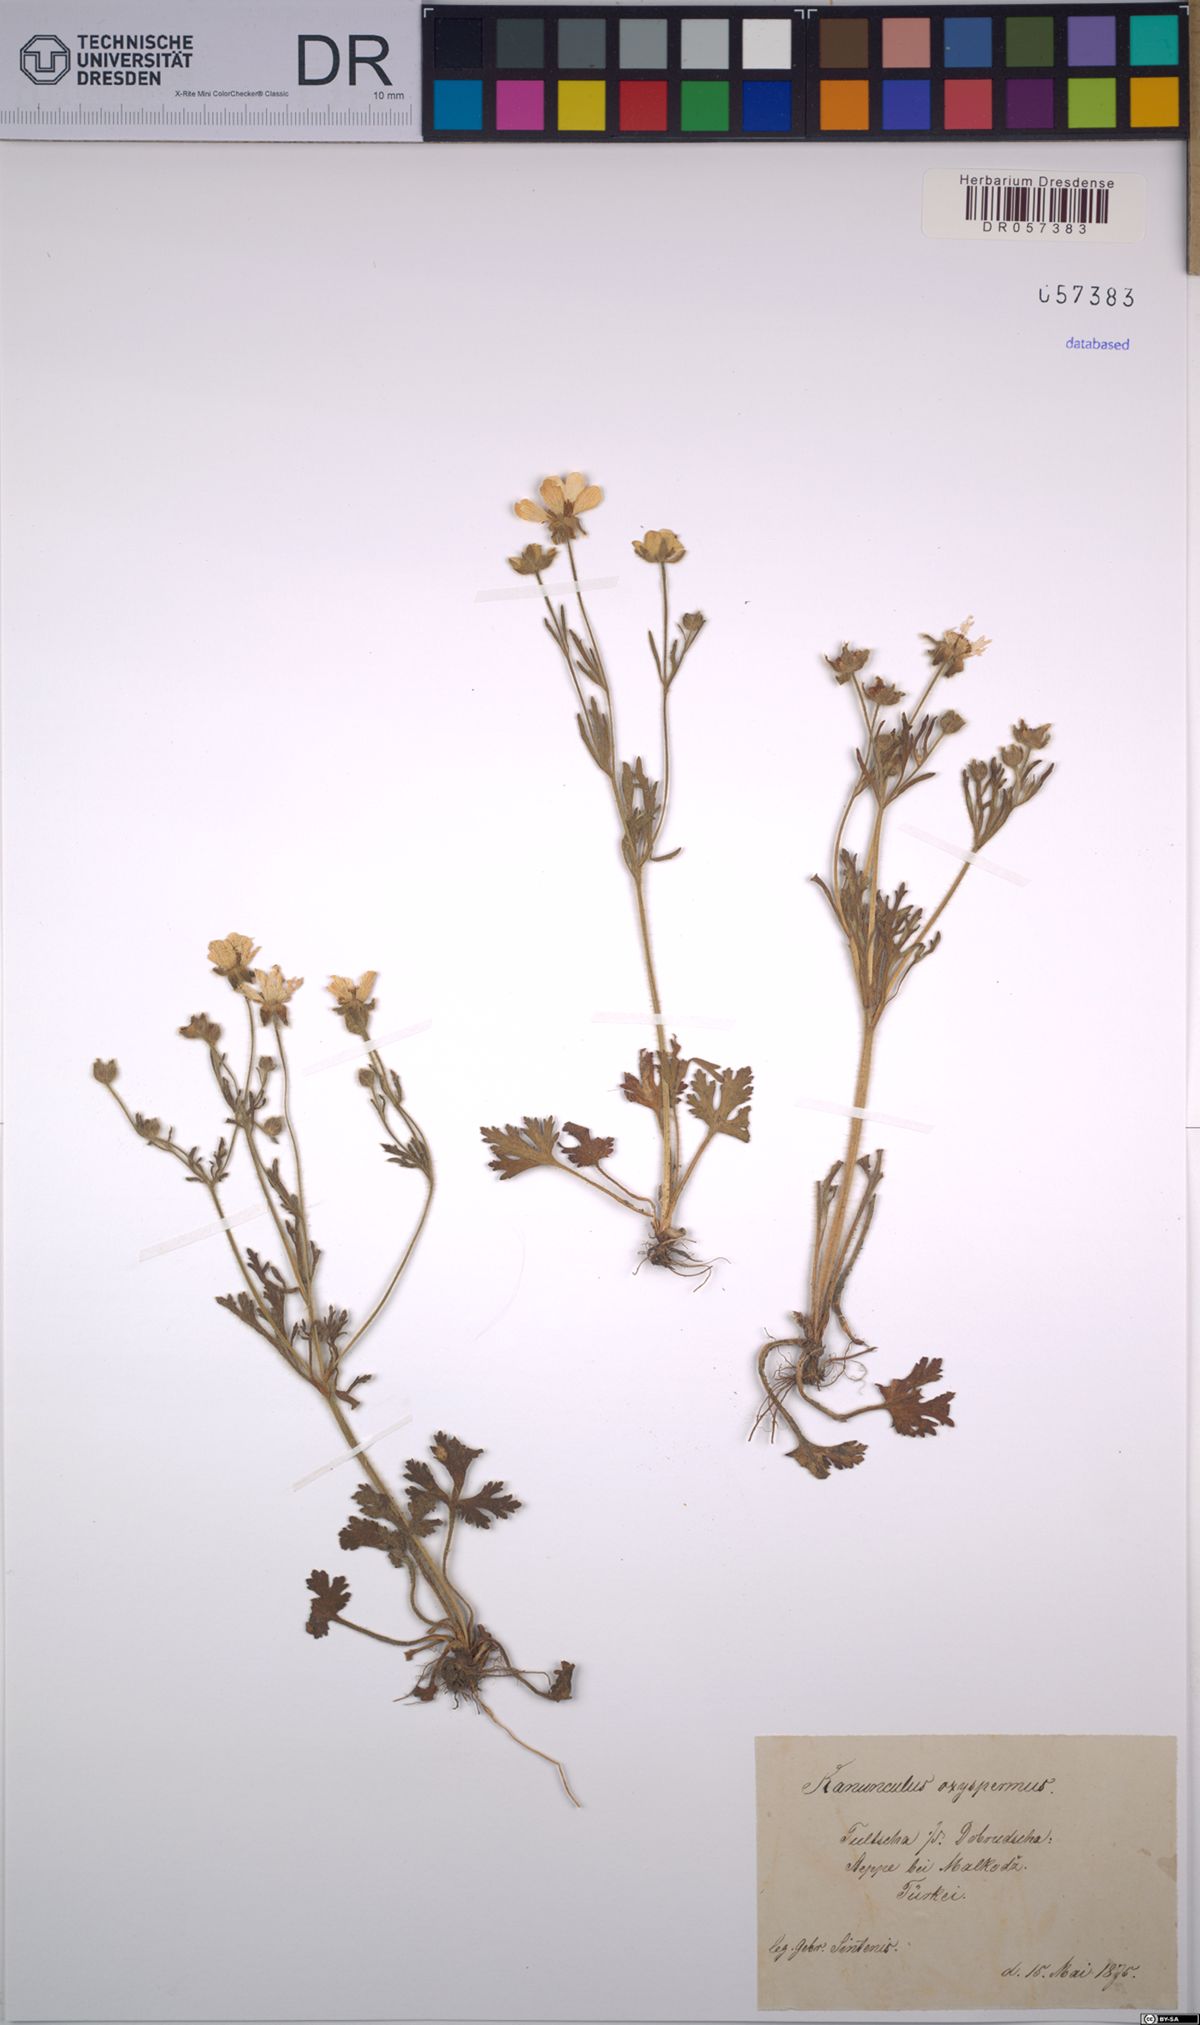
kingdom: Plantae
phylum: Tracheophyta
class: Magnoliopsida
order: Ranunculales
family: Ranunculaceae
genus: Ranunculus
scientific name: Ranunculus oxyspermus
